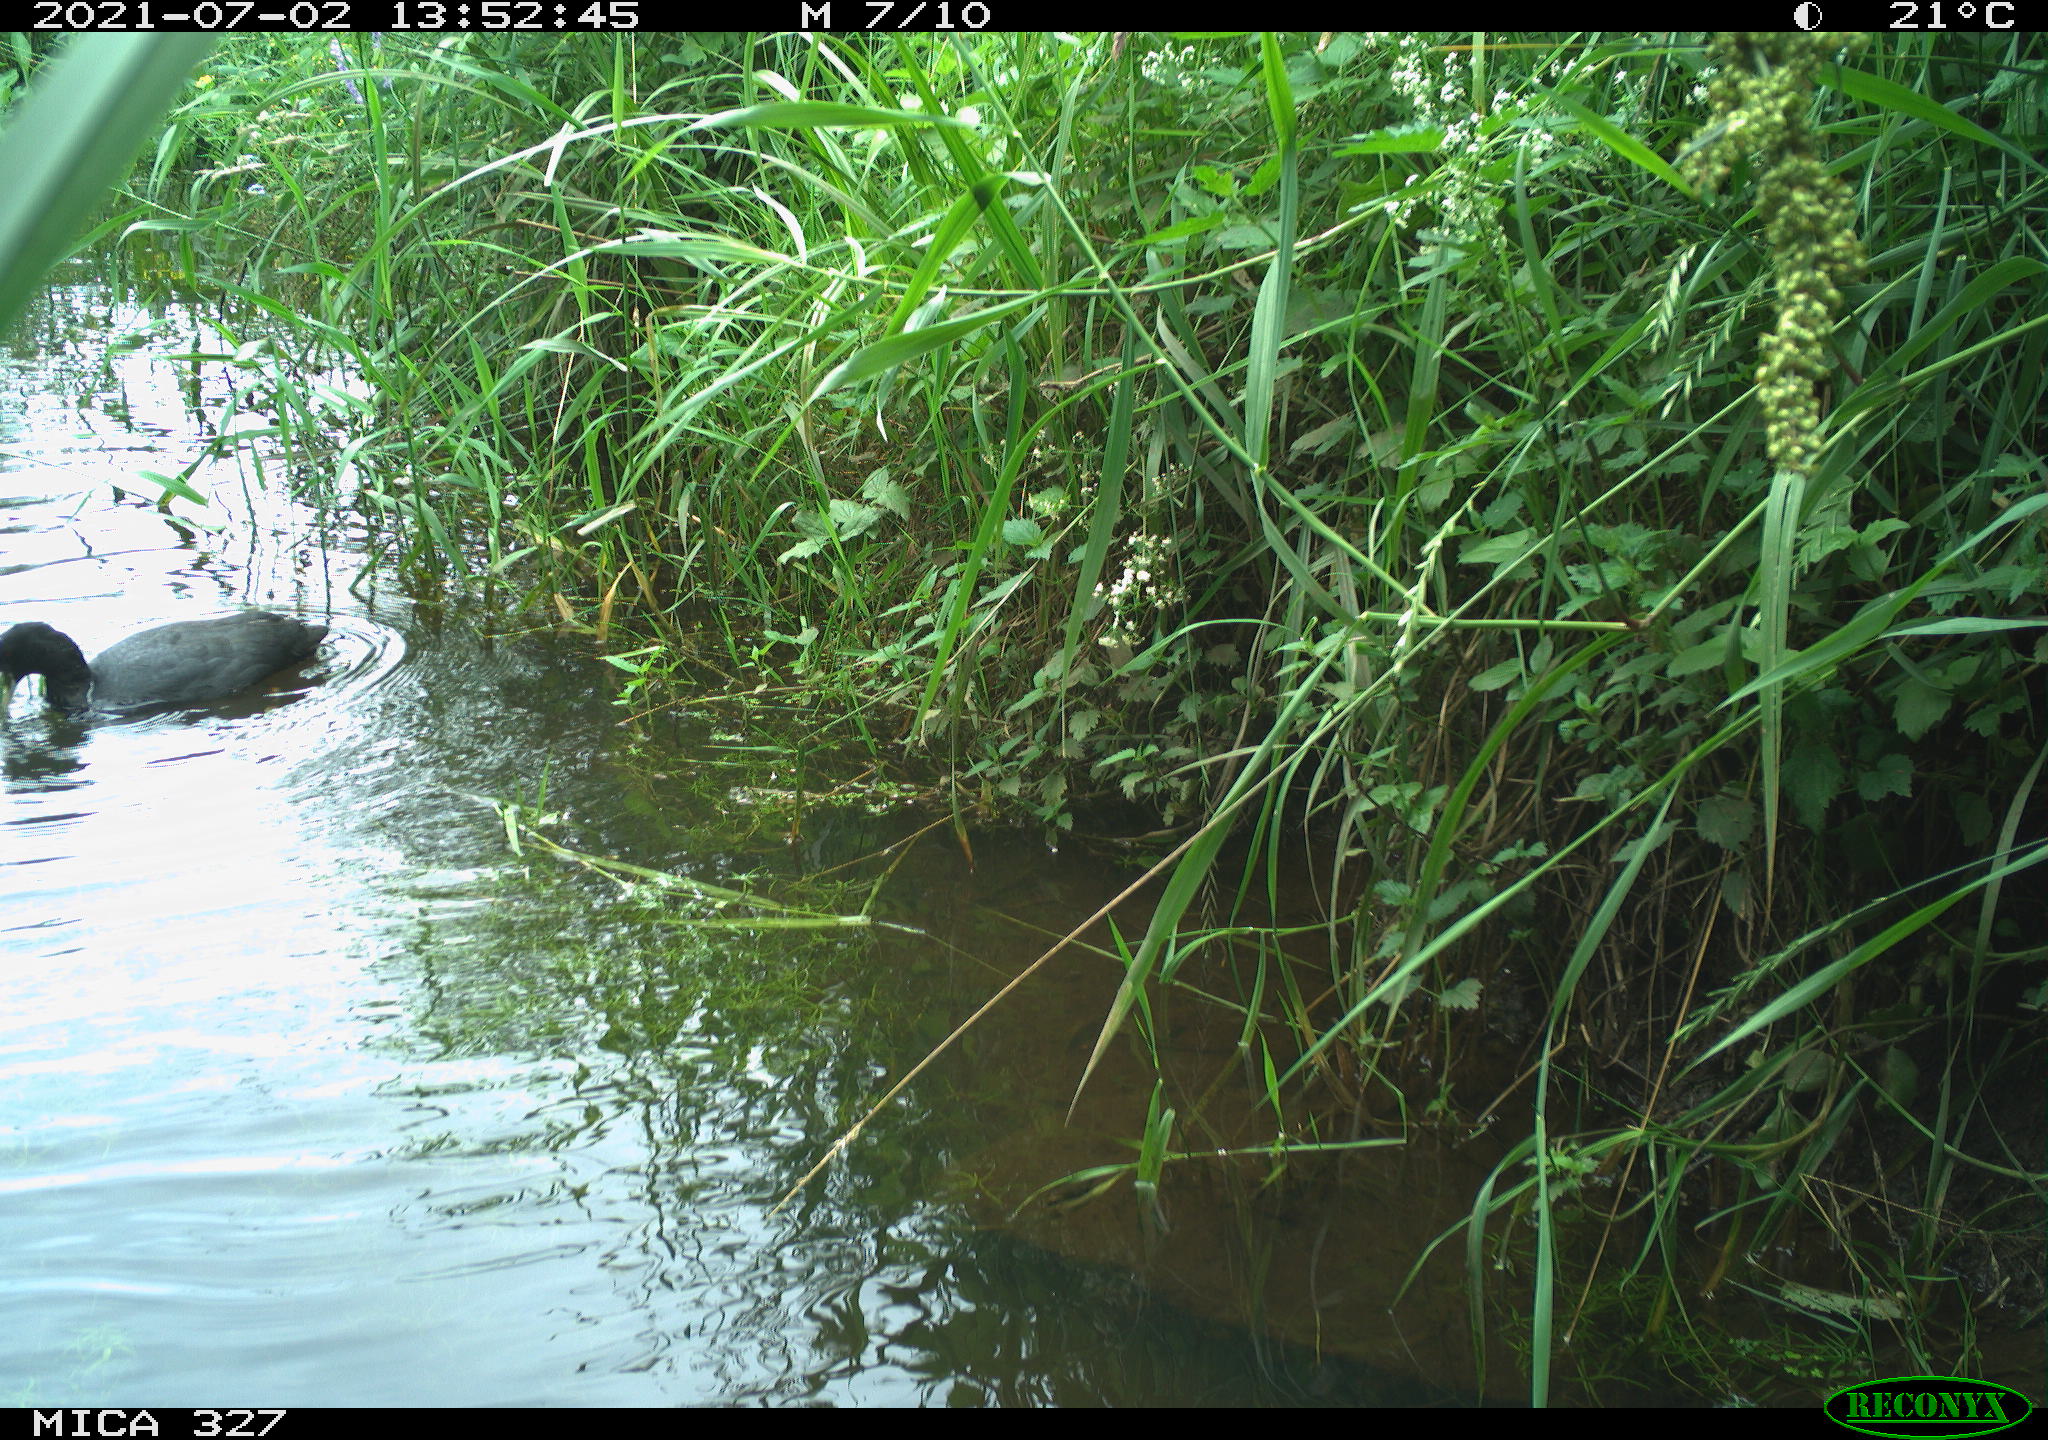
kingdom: Animalia
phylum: Chordata
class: Aves
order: Gruiformes
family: Rallidae
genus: Fulica
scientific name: Fulica atra
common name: Eurasian coot
